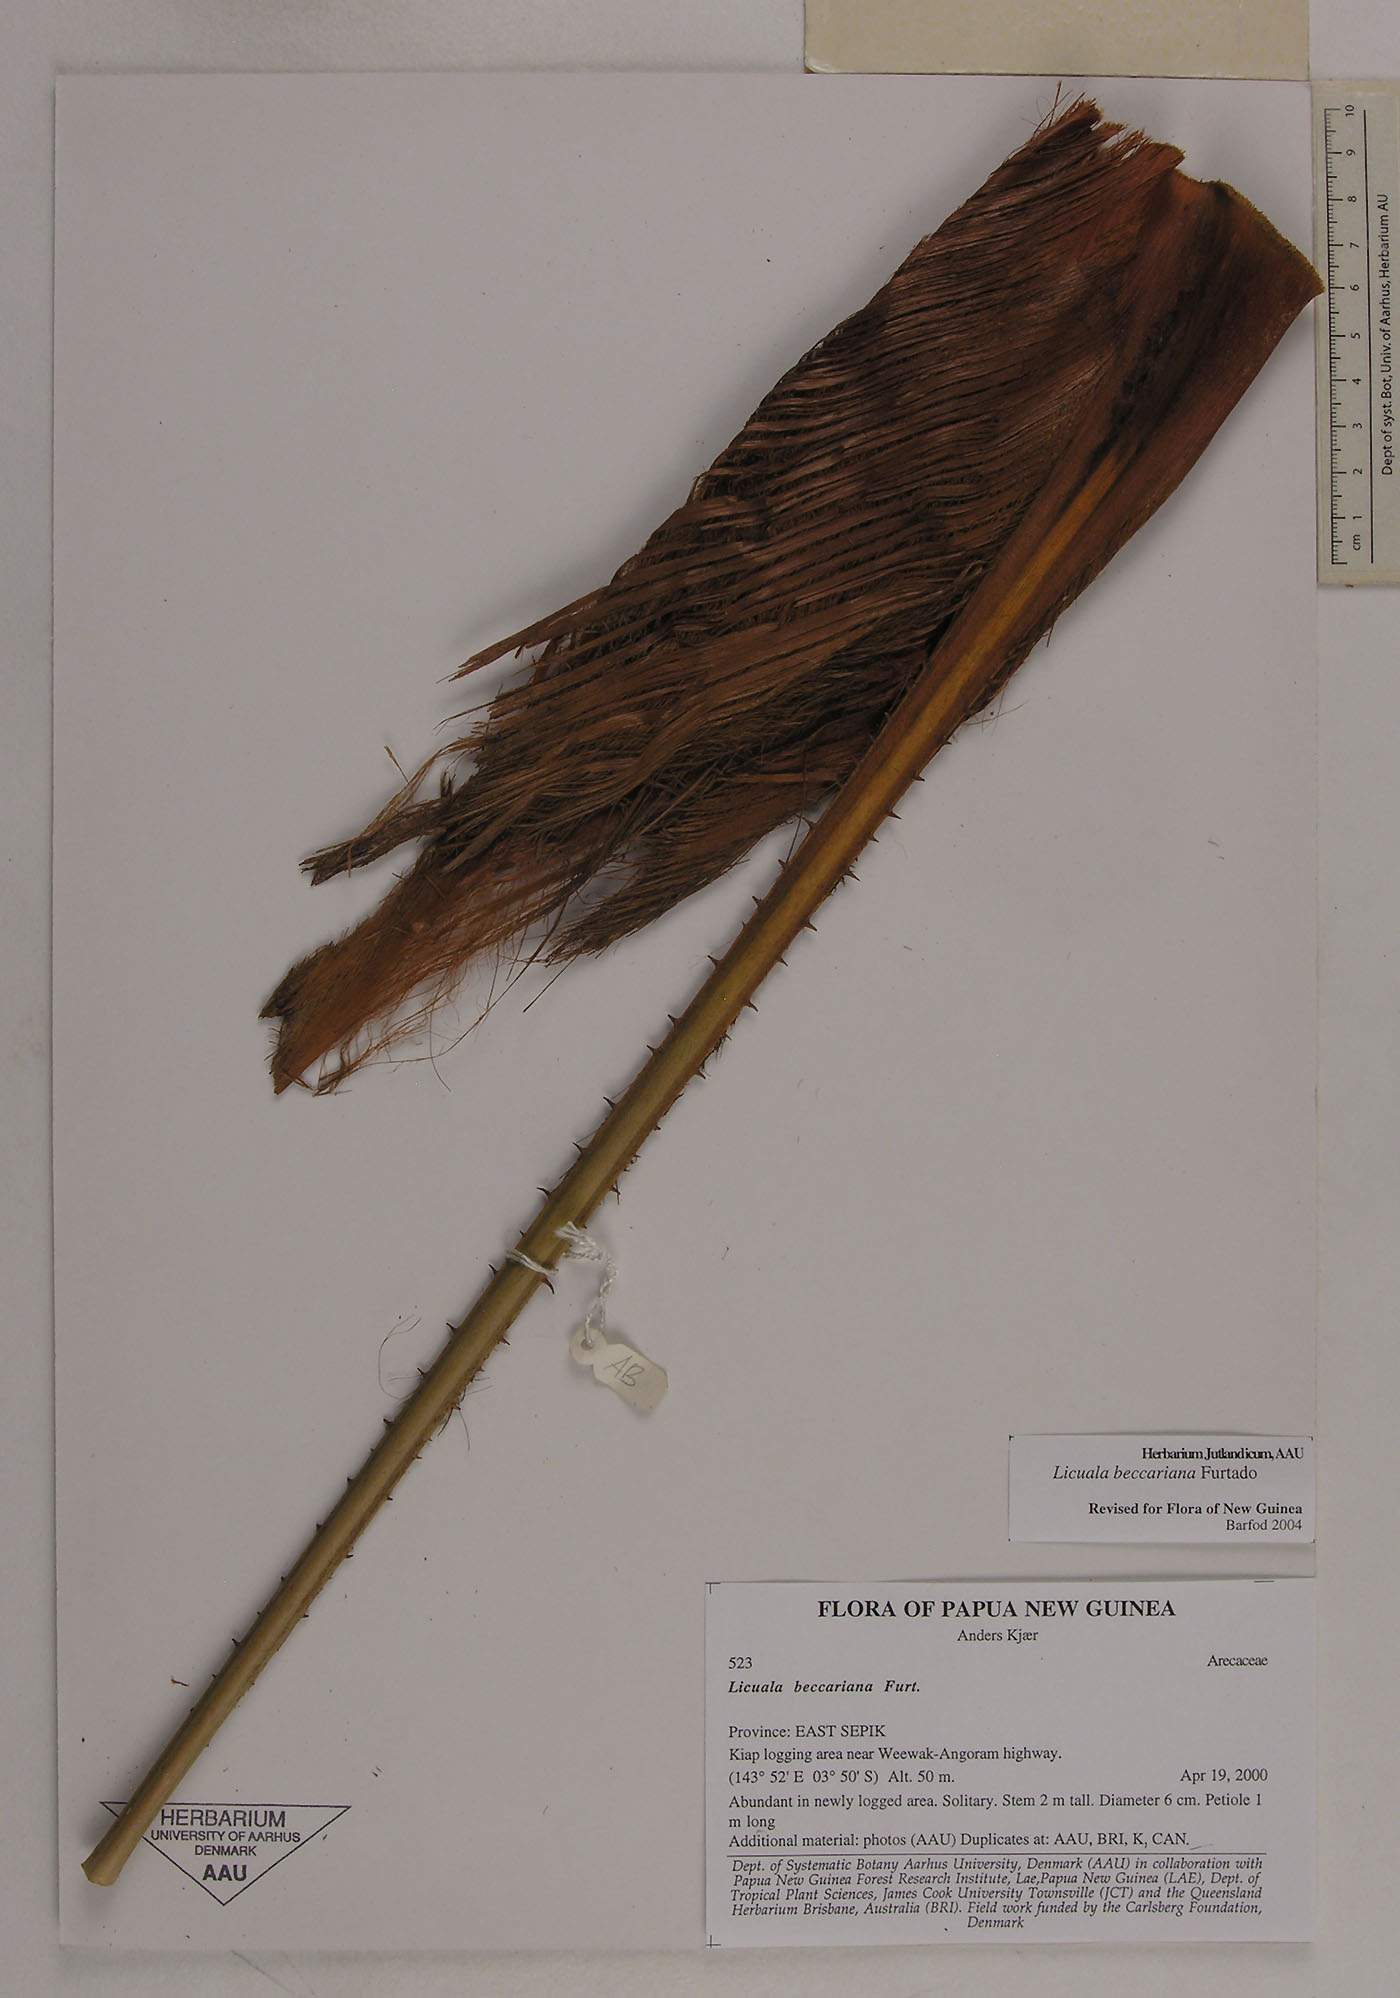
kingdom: Plantae
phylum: Tracheophyta
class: Liliopsida
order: Arecales
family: Arecaceae
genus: Licuala
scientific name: Licuala beccariana
